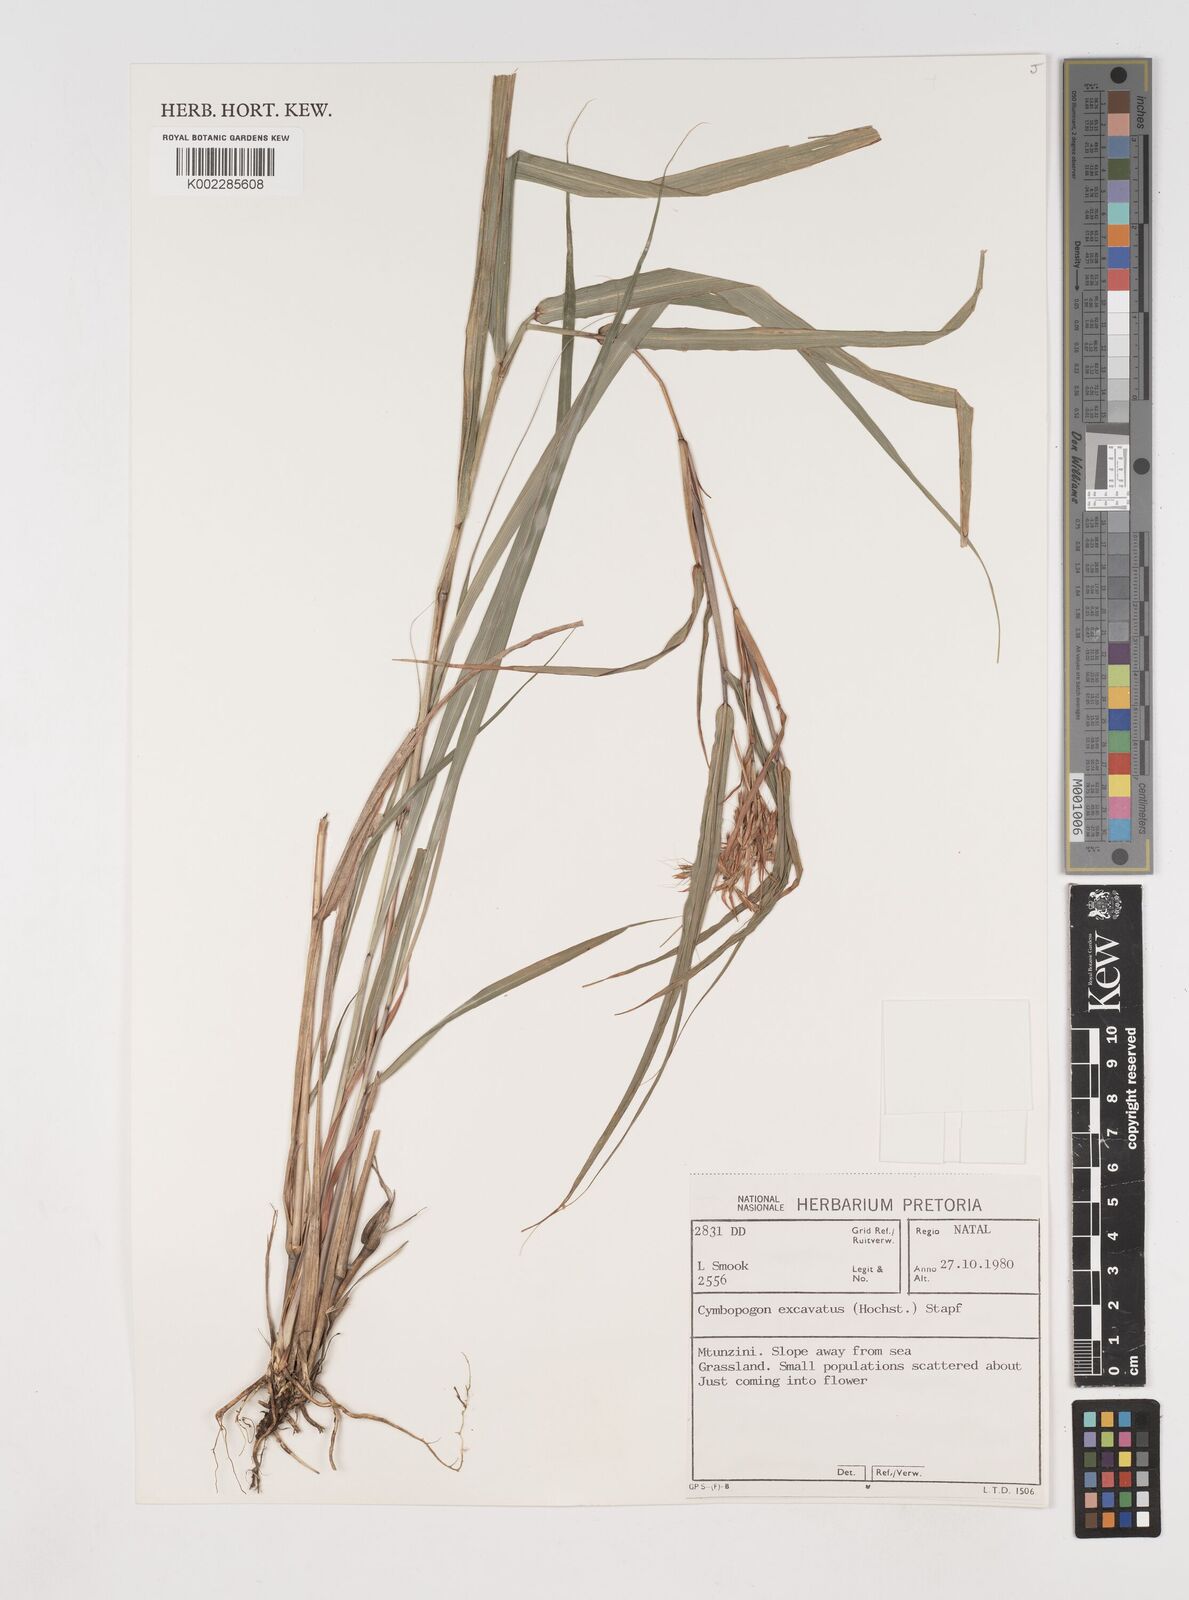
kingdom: Plantae
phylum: Tracheophyta
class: Liliopsida
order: Poales
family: Poaceae
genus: Cymbopogon
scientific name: Cymbopogon caesius
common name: Kachi grass
